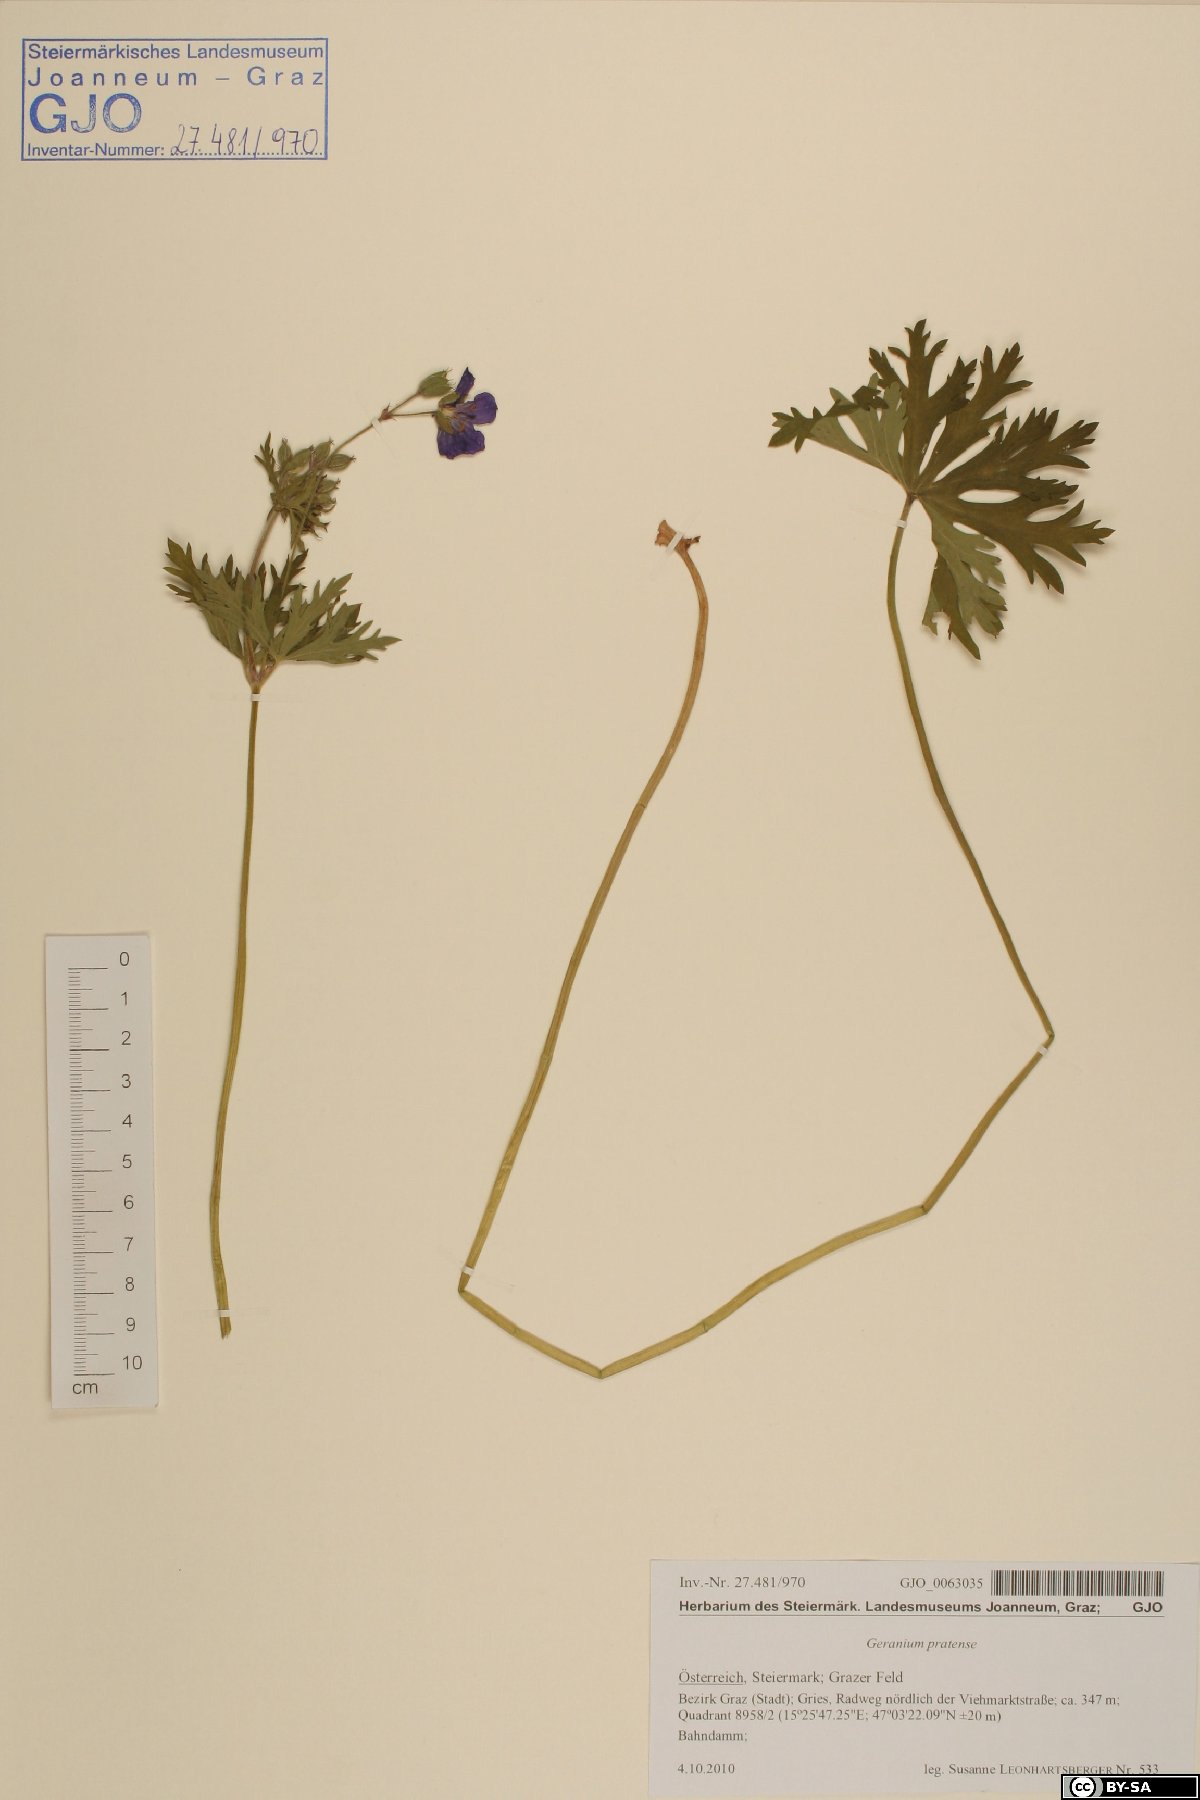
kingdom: Plantae
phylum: Tracheophyta
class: Magnoliopsida
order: Geraniales
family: Geraniaceae
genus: Geranium
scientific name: Geranium pratense
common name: Meadow crane's-bill
